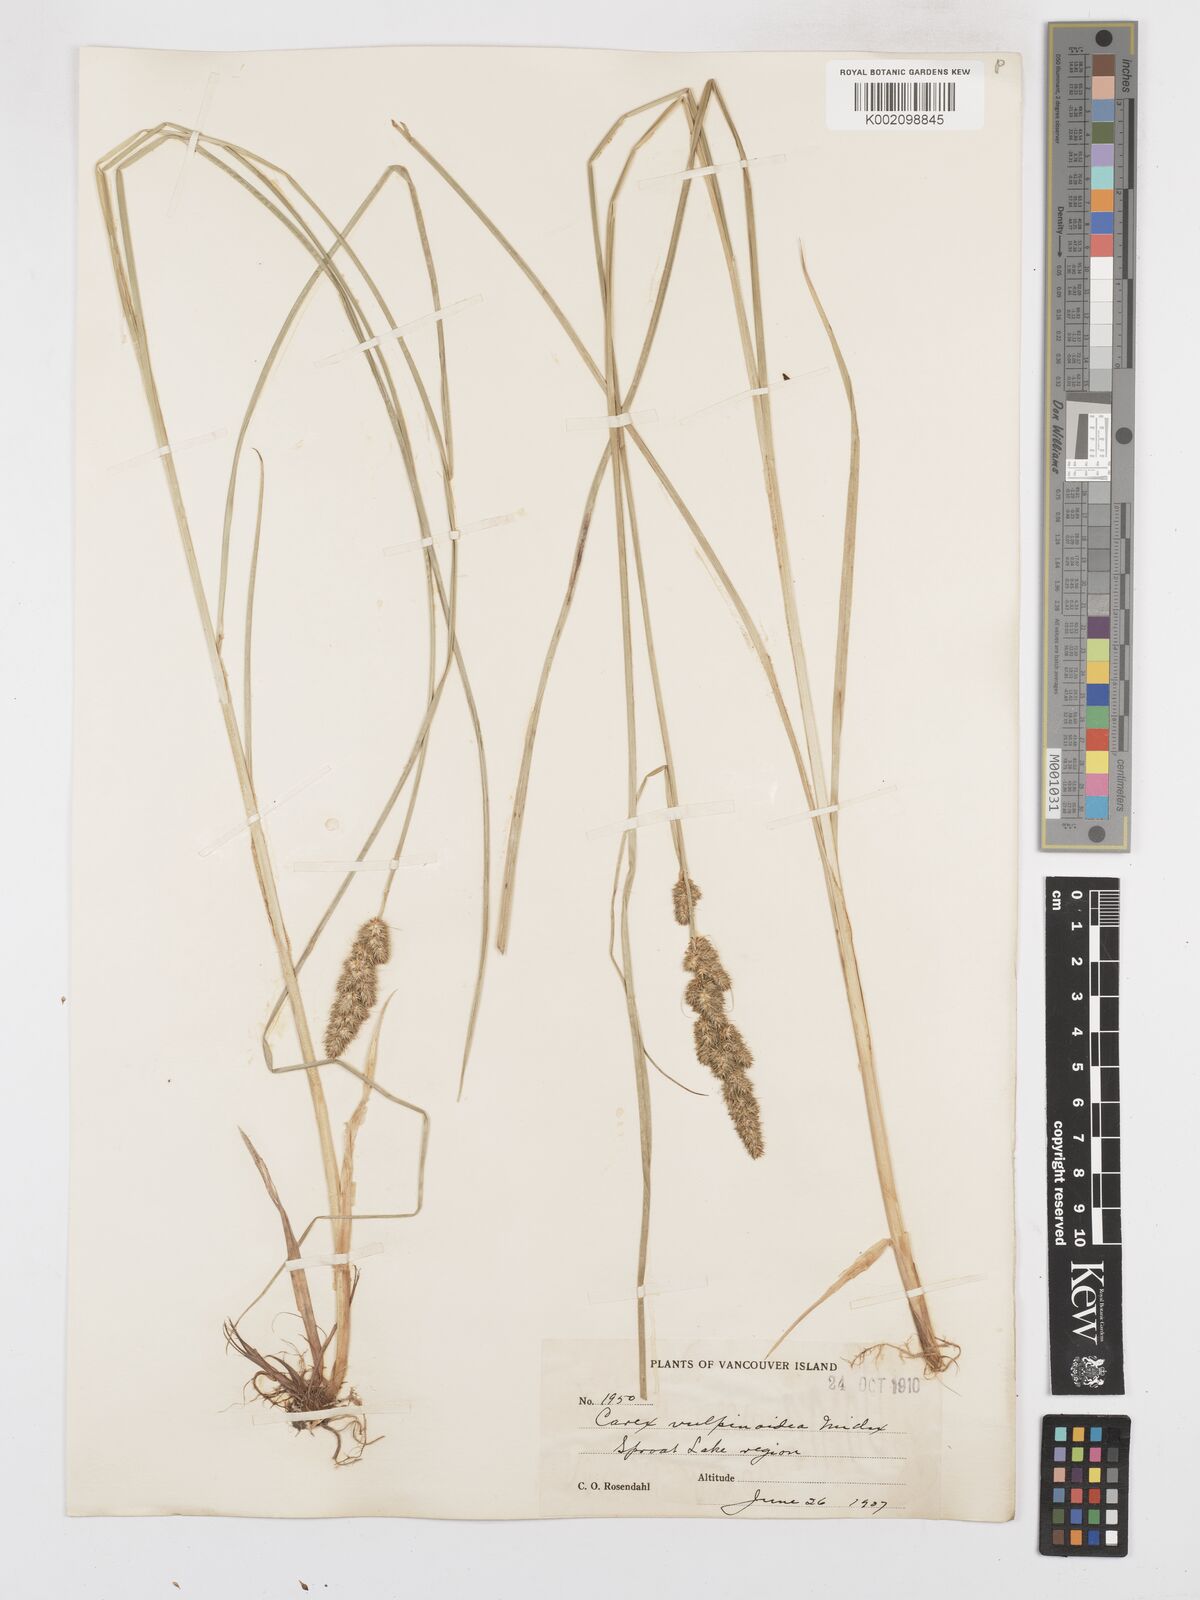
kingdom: Plantae
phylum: Tracheophyta
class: Liliopsida
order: Poales
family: Cyperaceae
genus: Carex
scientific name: Carex annectens
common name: Large fox sedge
